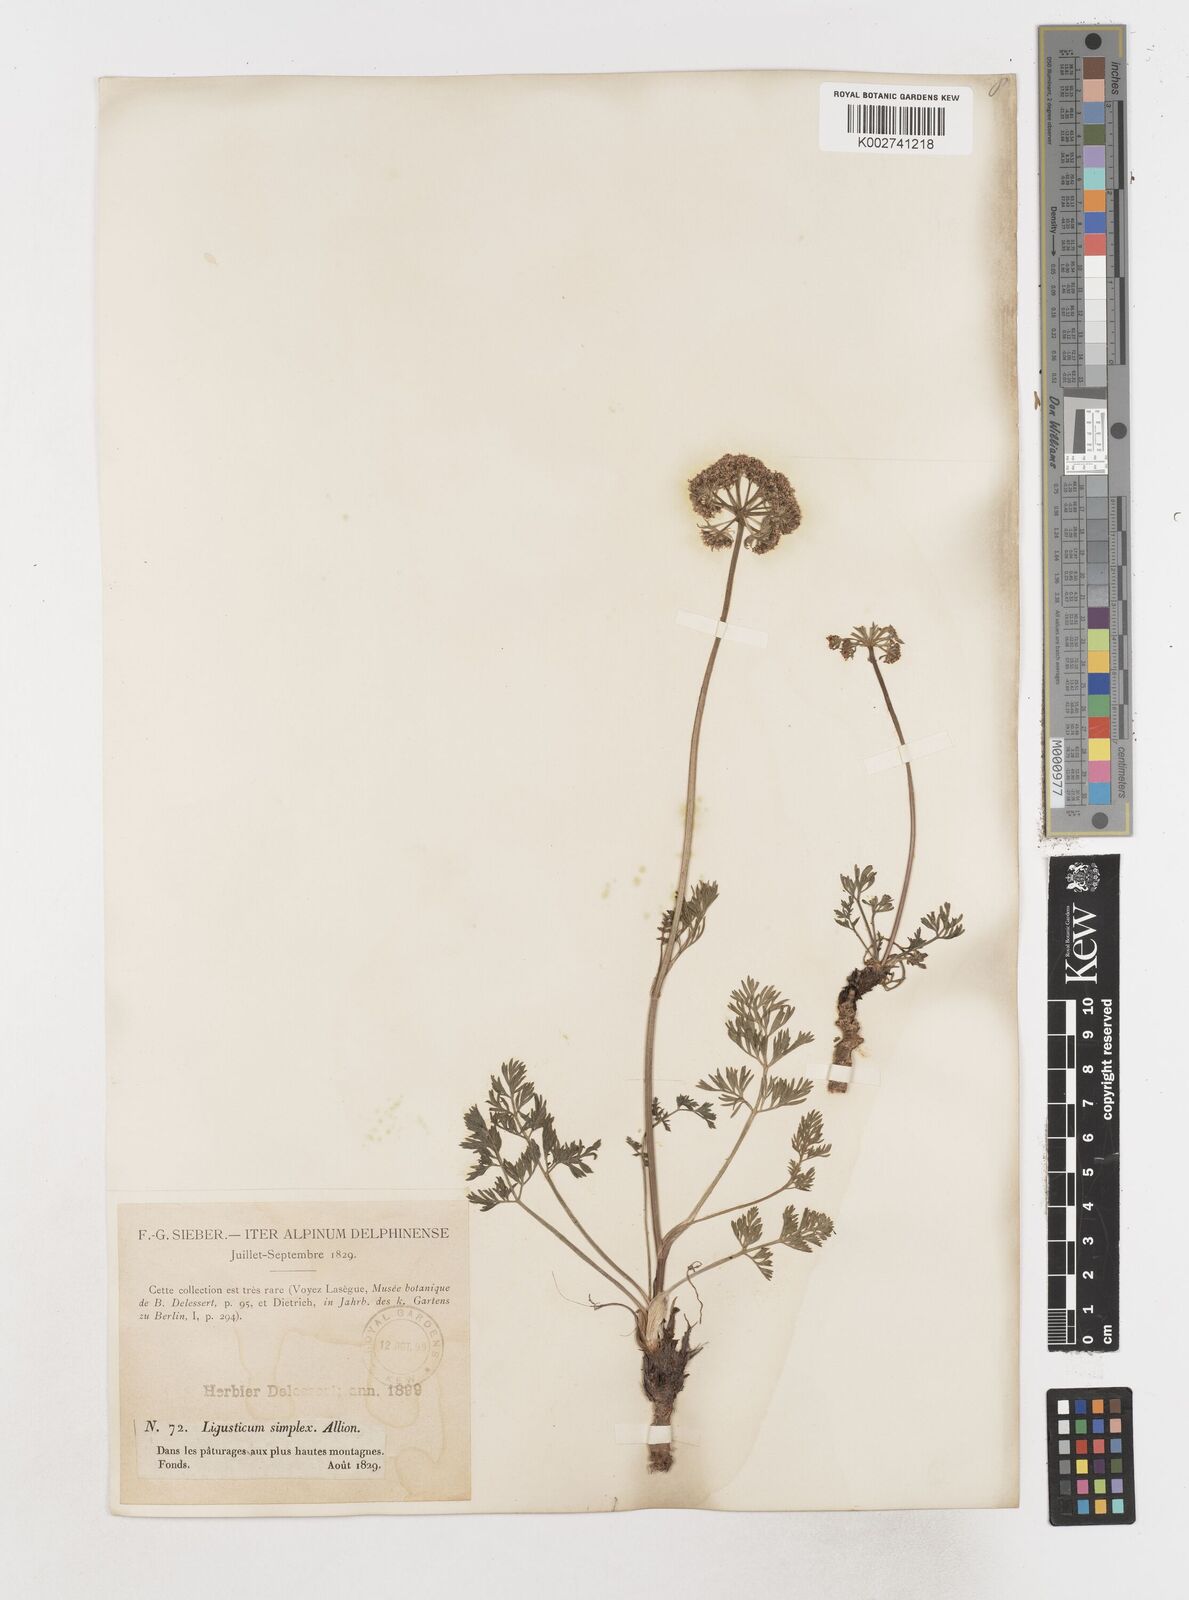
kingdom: Plantae
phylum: Tracheophyta
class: Magnoliopsida
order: Apiales
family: Apiaceae
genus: Pachypleurum
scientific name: Pachypleurum mutellinoides
